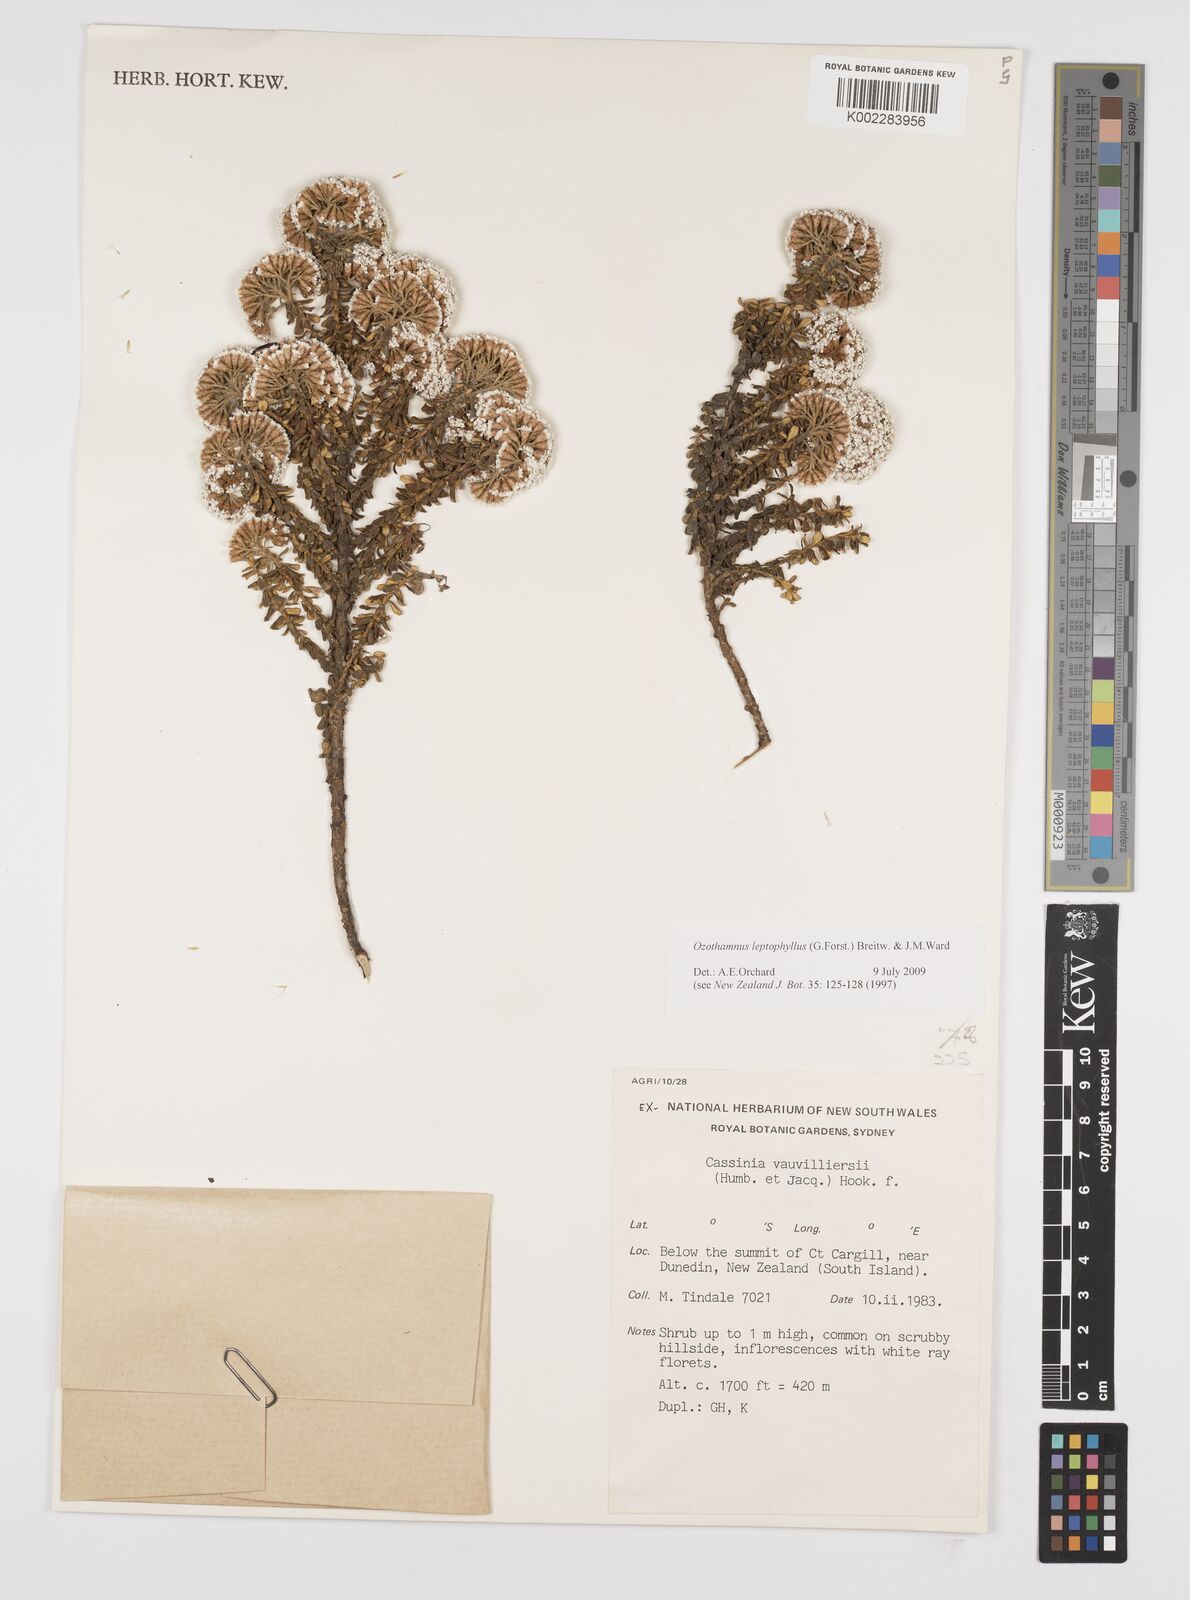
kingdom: Plantae
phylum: Tracheophyta
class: Magnoliopsida
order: Asterales
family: Asteraceae
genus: Ozothamnus
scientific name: Ozothamnus leptophyllus
